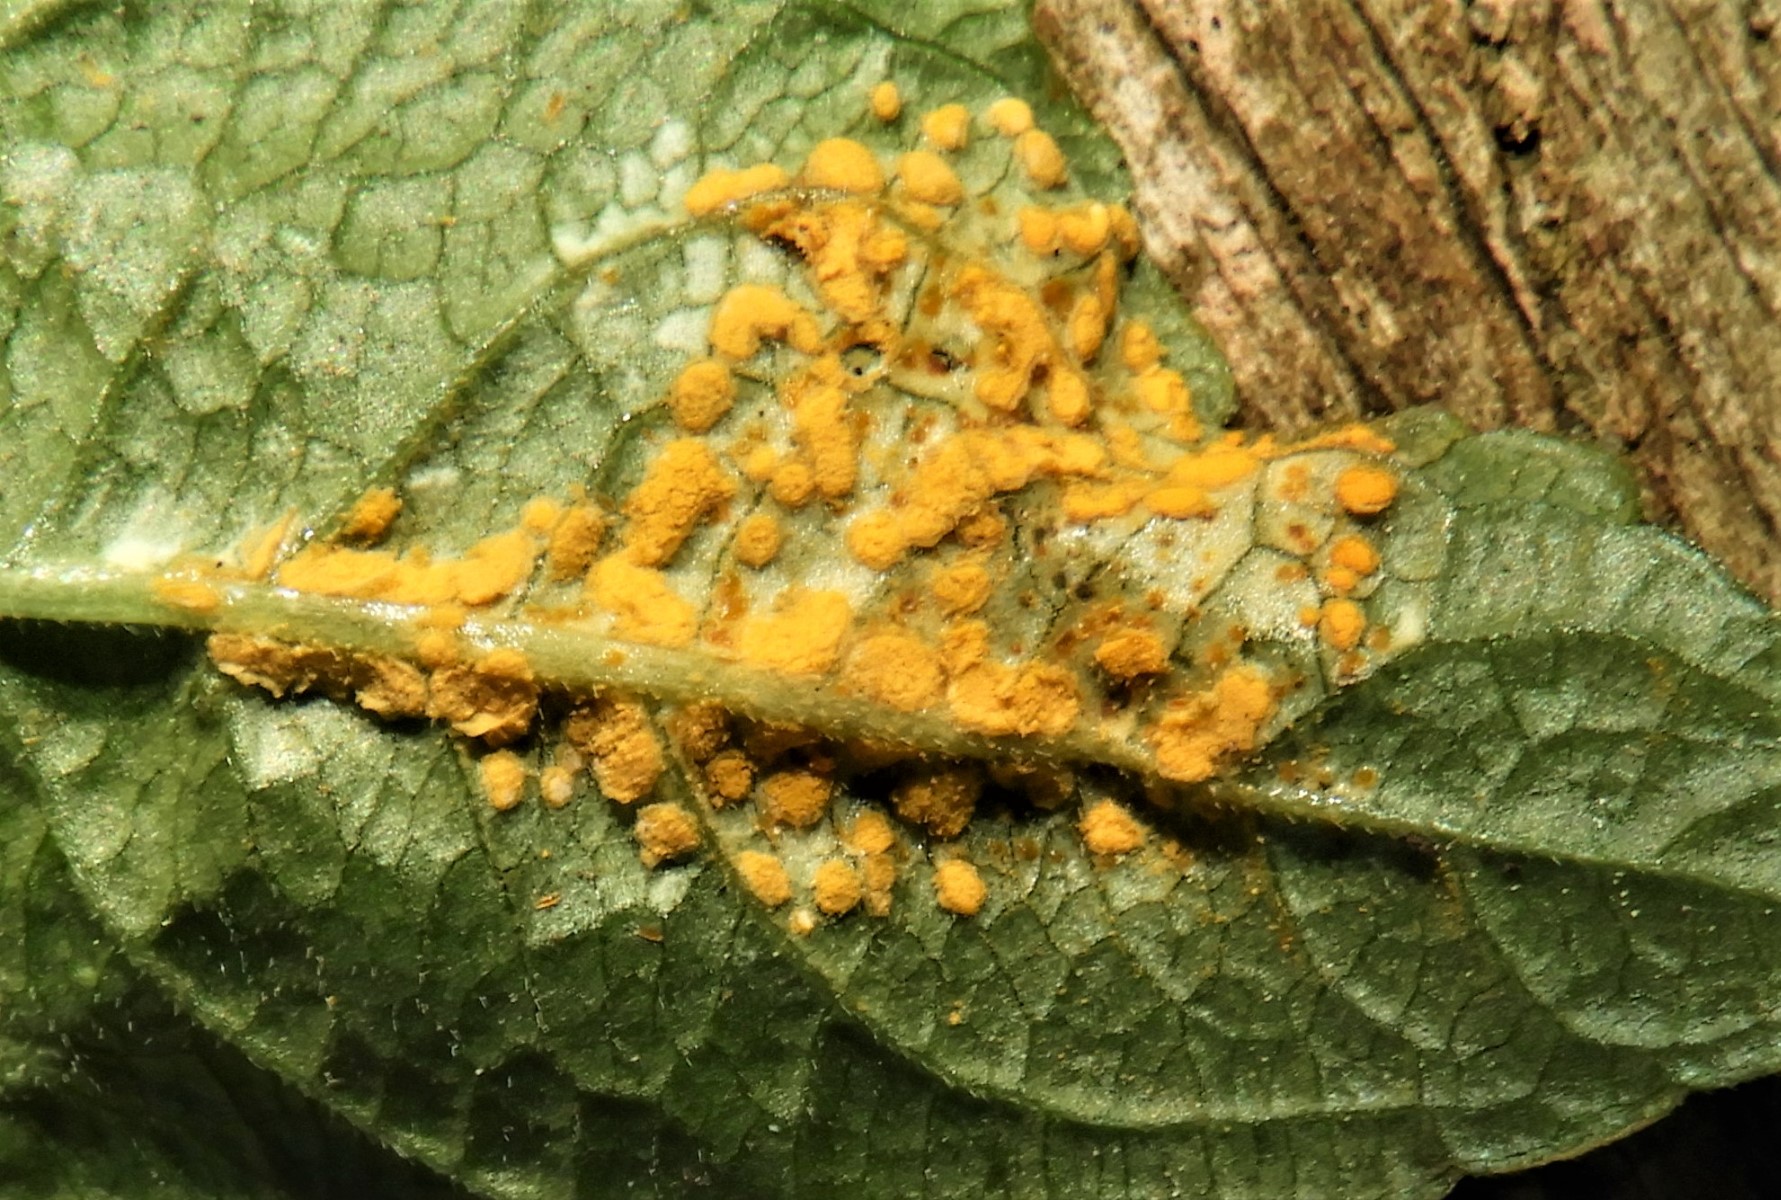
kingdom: Fungi
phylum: Basidiomycota
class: Pucciniomycetes
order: Pucciniales
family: Melampsoraceae
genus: Melampsora
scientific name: Melampsora populnea
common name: poppel-skorperust
